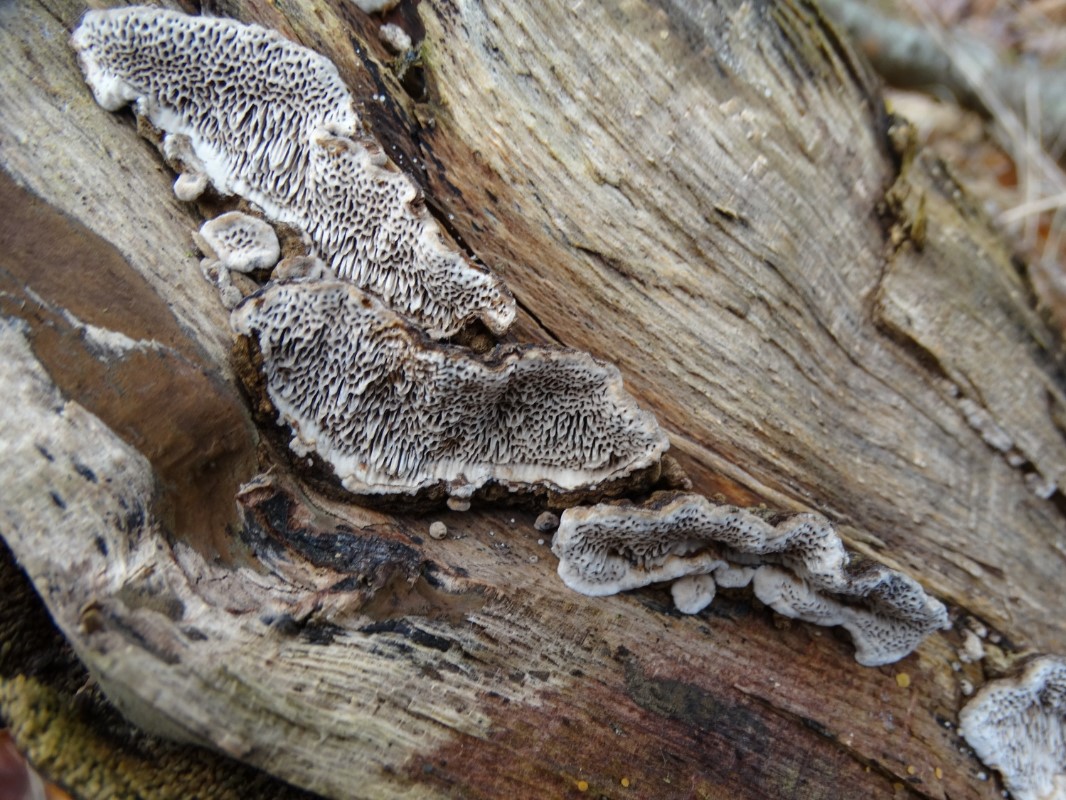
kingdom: Fungi
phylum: Basidiomycota
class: Agaricomycetes
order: Polyporales
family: Polyporaceae
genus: Podofomes
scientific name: Podofomes mollis
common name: blød begporesvamp
